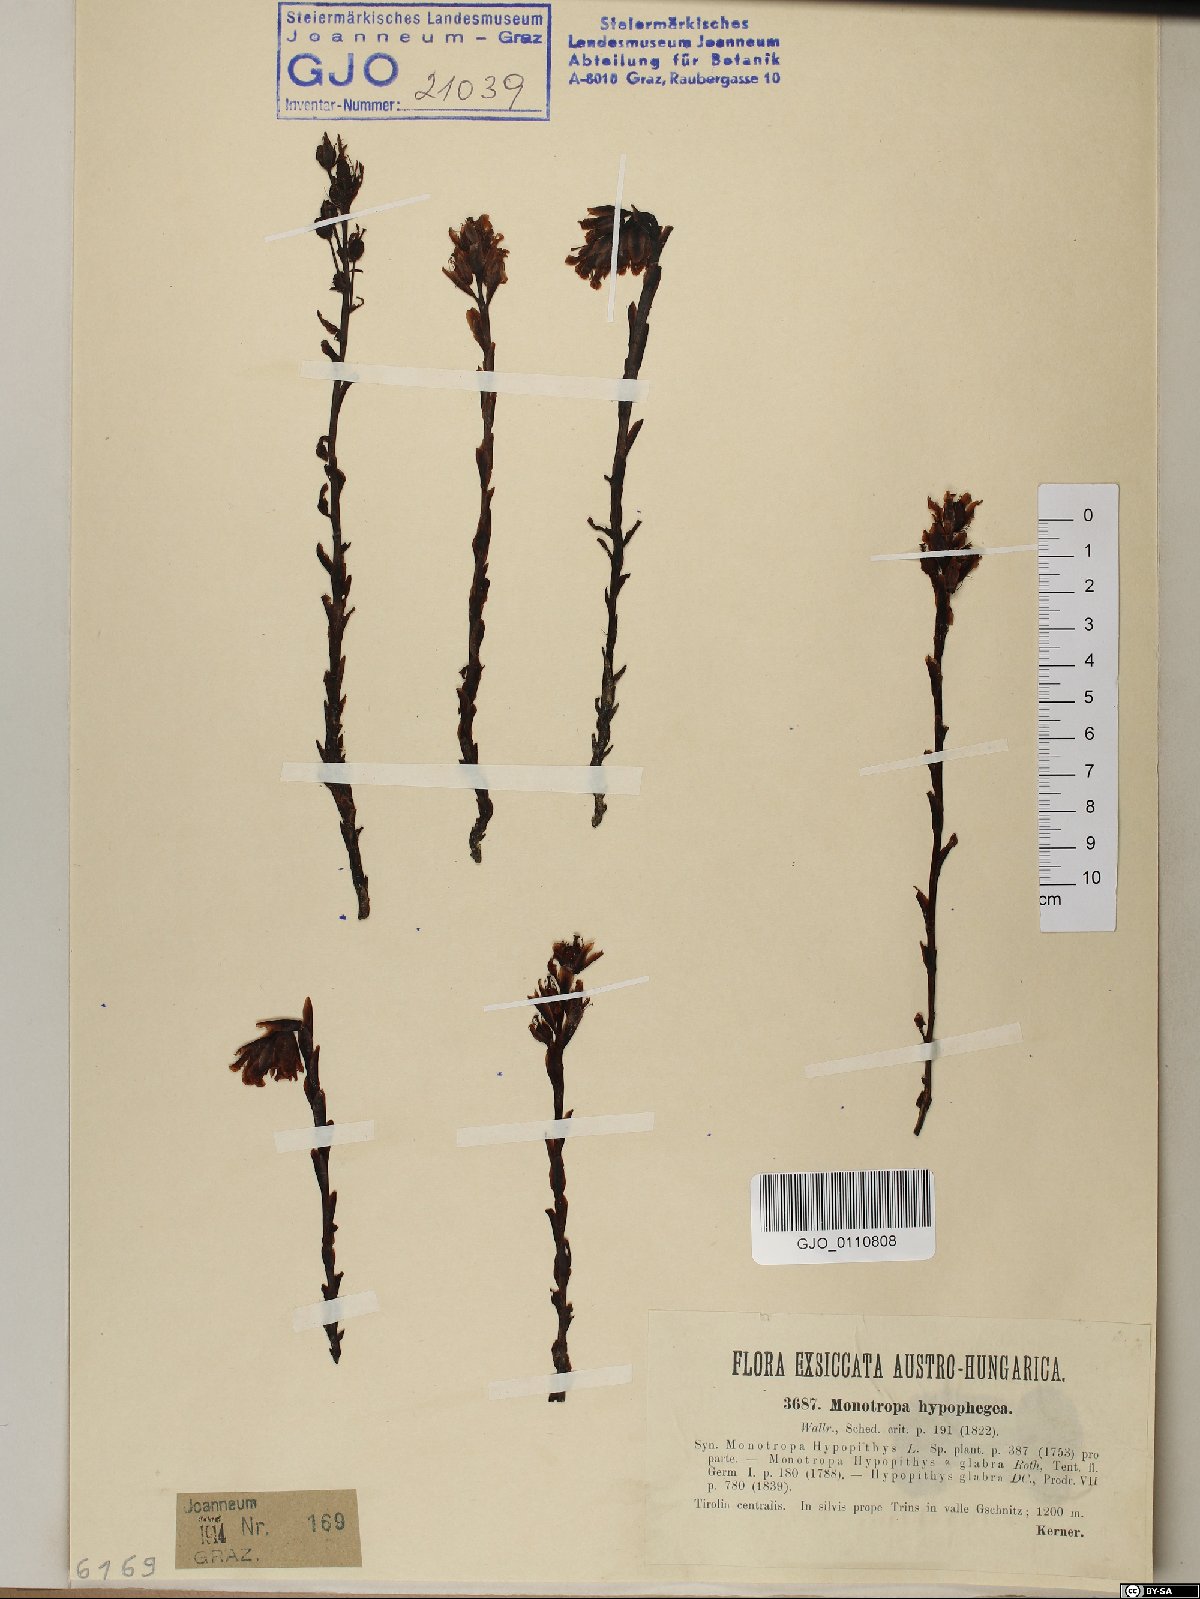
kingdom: Plantae
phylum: Tracheophyta
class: Magnoliopsida
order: Ericales
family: Ericaceae
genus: Hypopitys
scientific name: Hypopitys hypophegea
